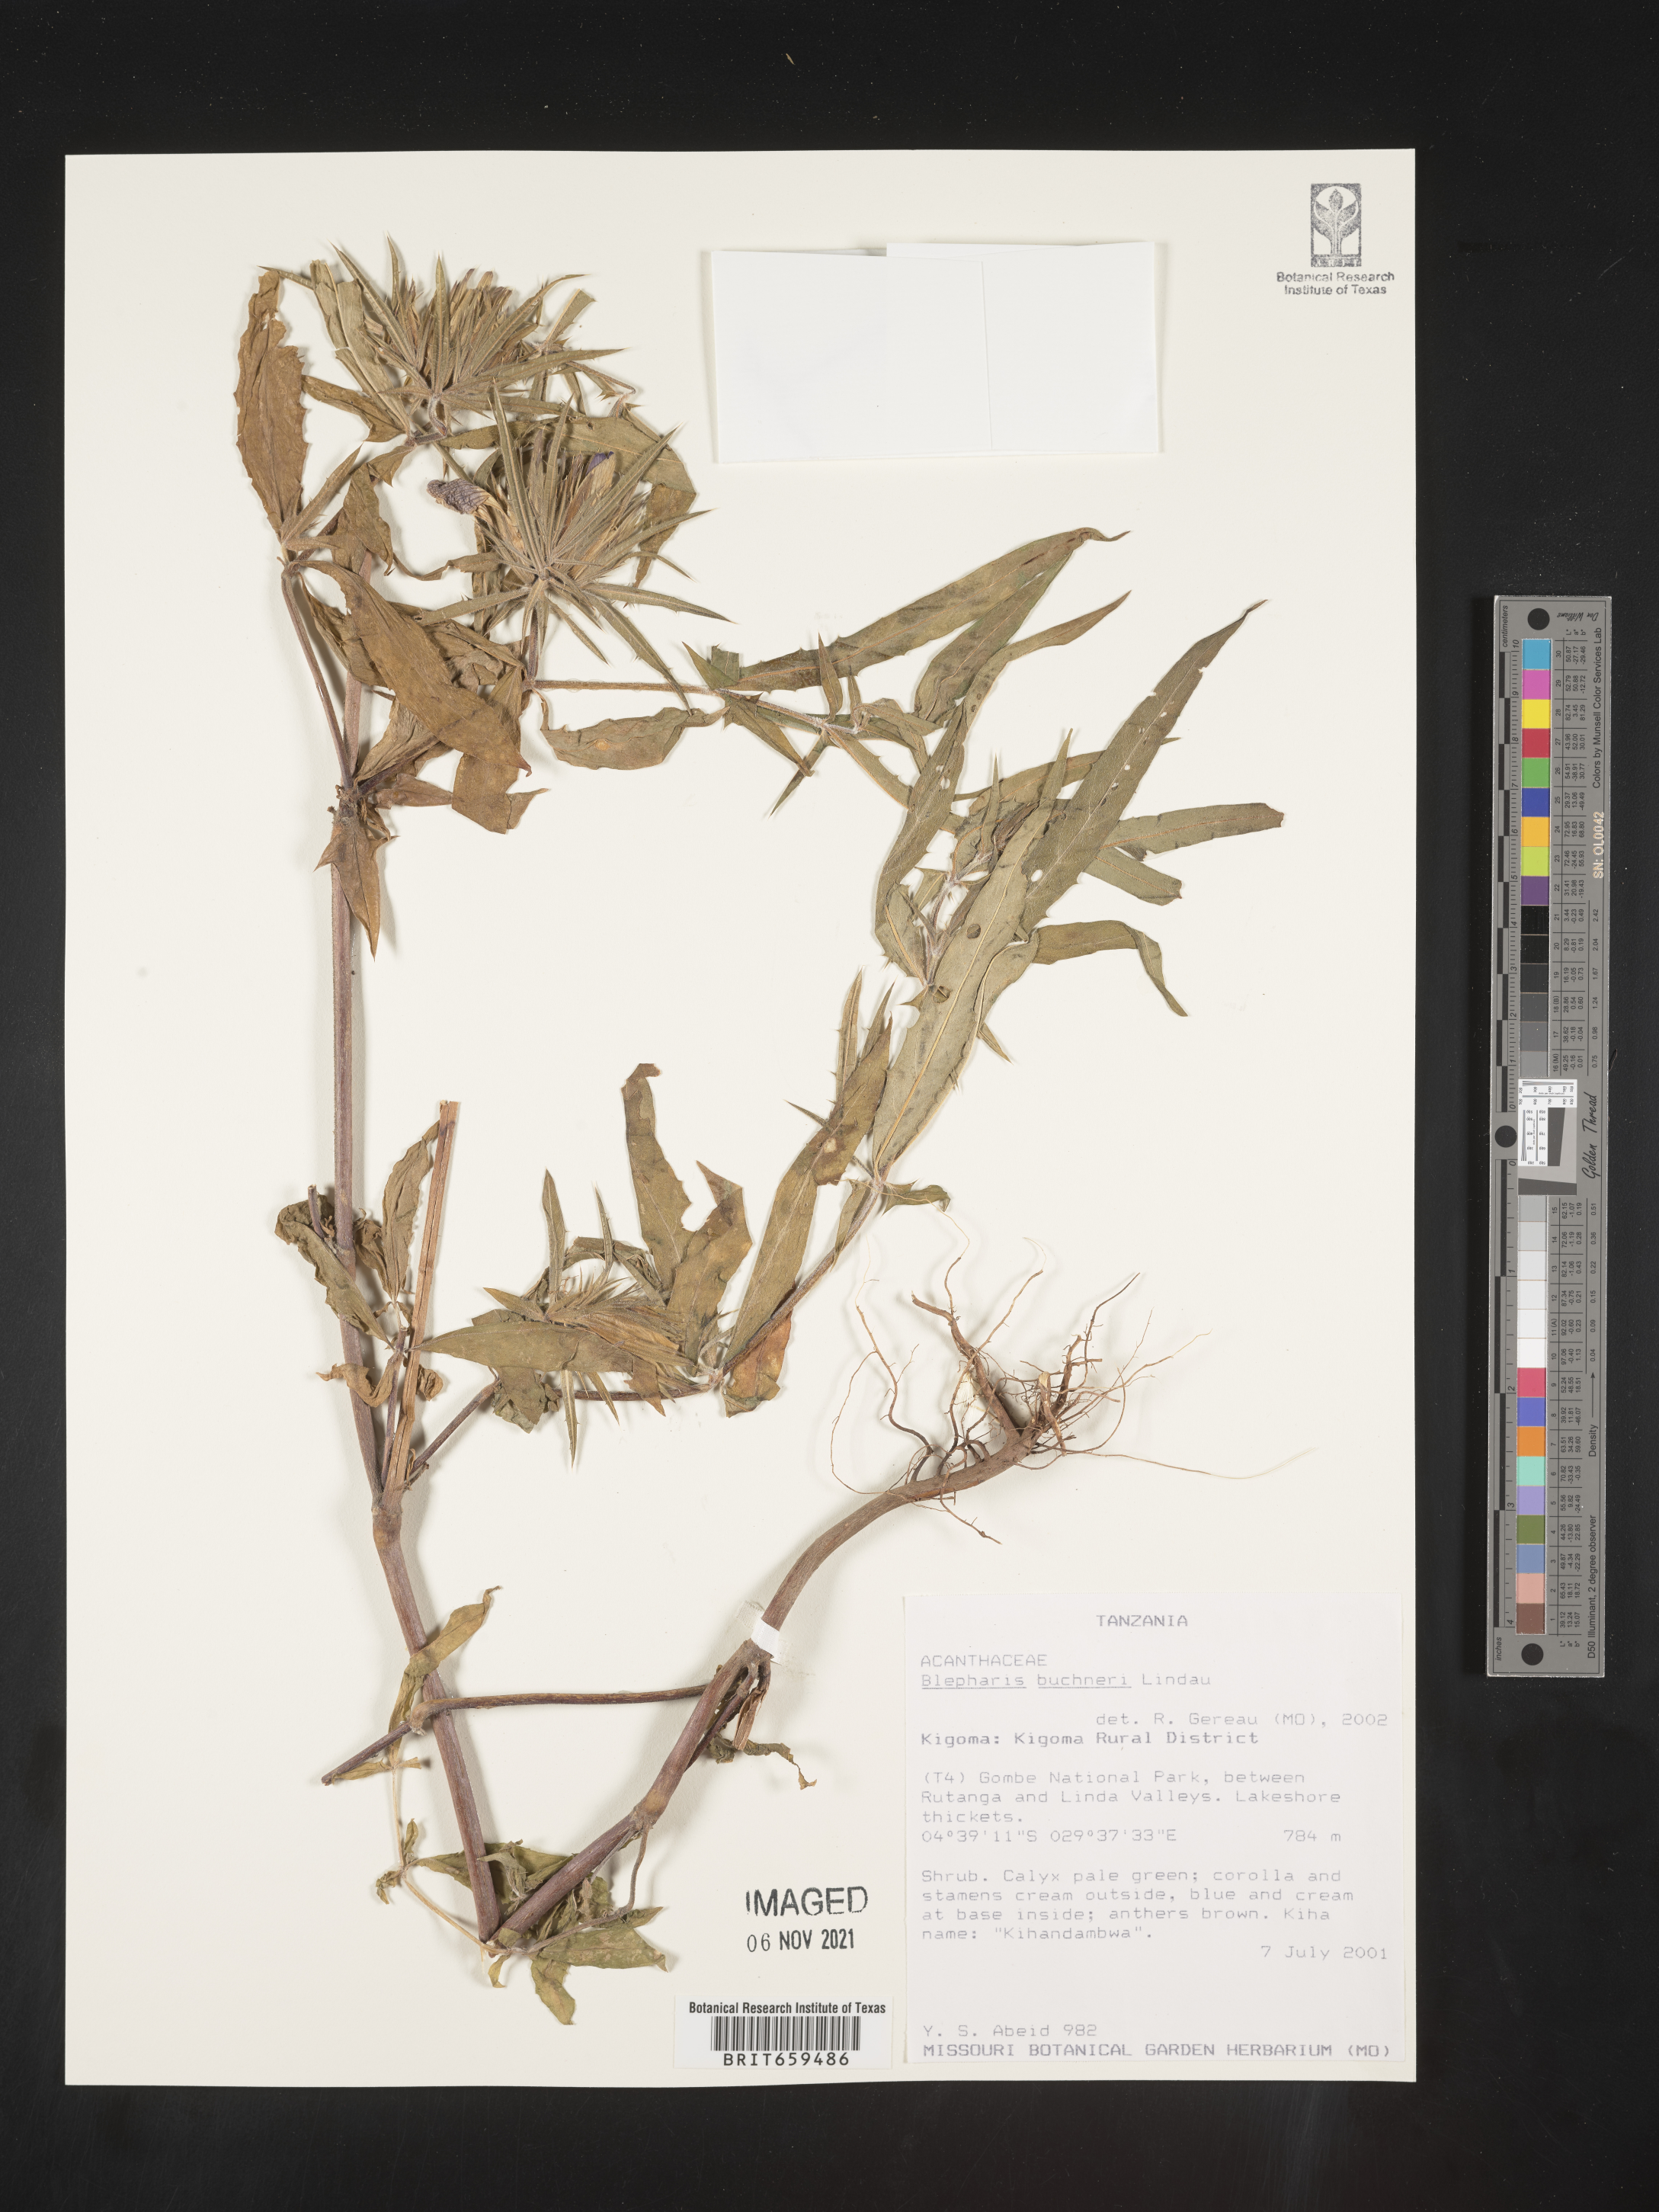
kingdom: Plantae
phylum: Tracheophyta
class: Magnoliopsida
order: Lamiales
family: Acanthaceae
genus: Blepharis
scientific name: Blepharis buchneri
